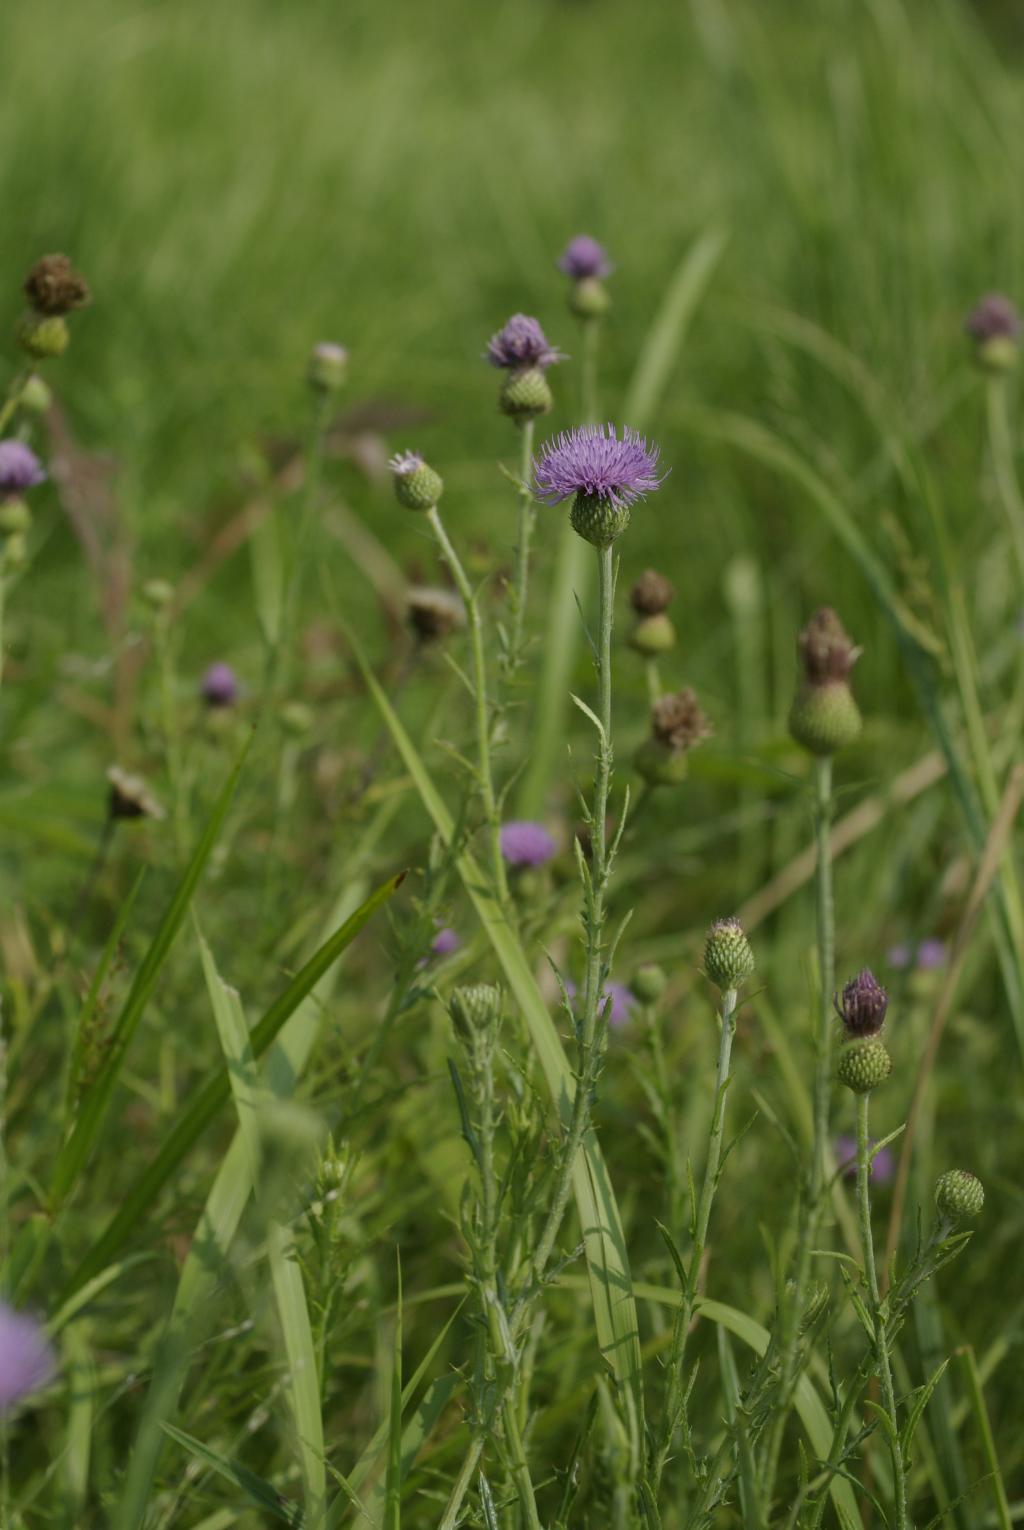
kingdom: Plantae
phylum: Tracheophyta
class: Magnoliopsida
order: Asterales
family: Asteraceae
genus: Cirsium
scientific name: Cirsium lineare
